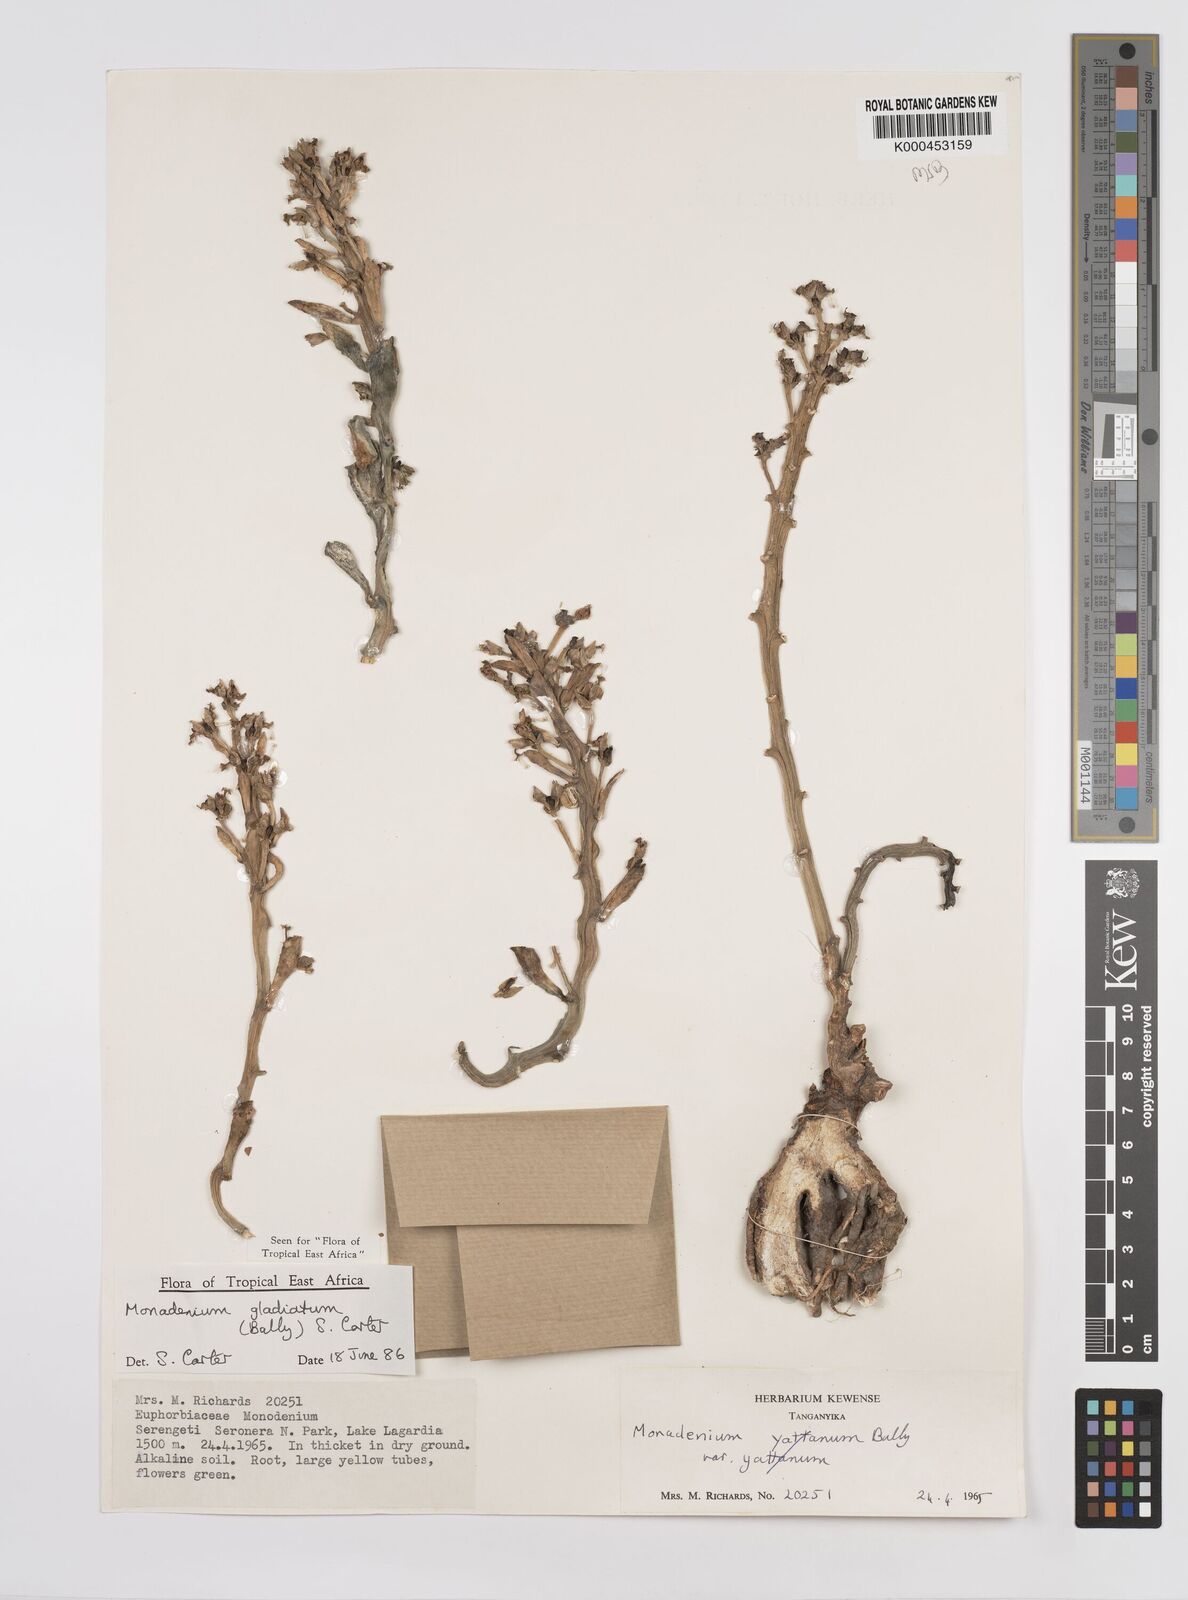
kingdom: Plantae
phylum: Tracheophyta
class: Magnoliopsida
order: Malpighiales
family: Euphorbiaceae
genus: Euphorbia
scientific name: Euphorbia gladiata
